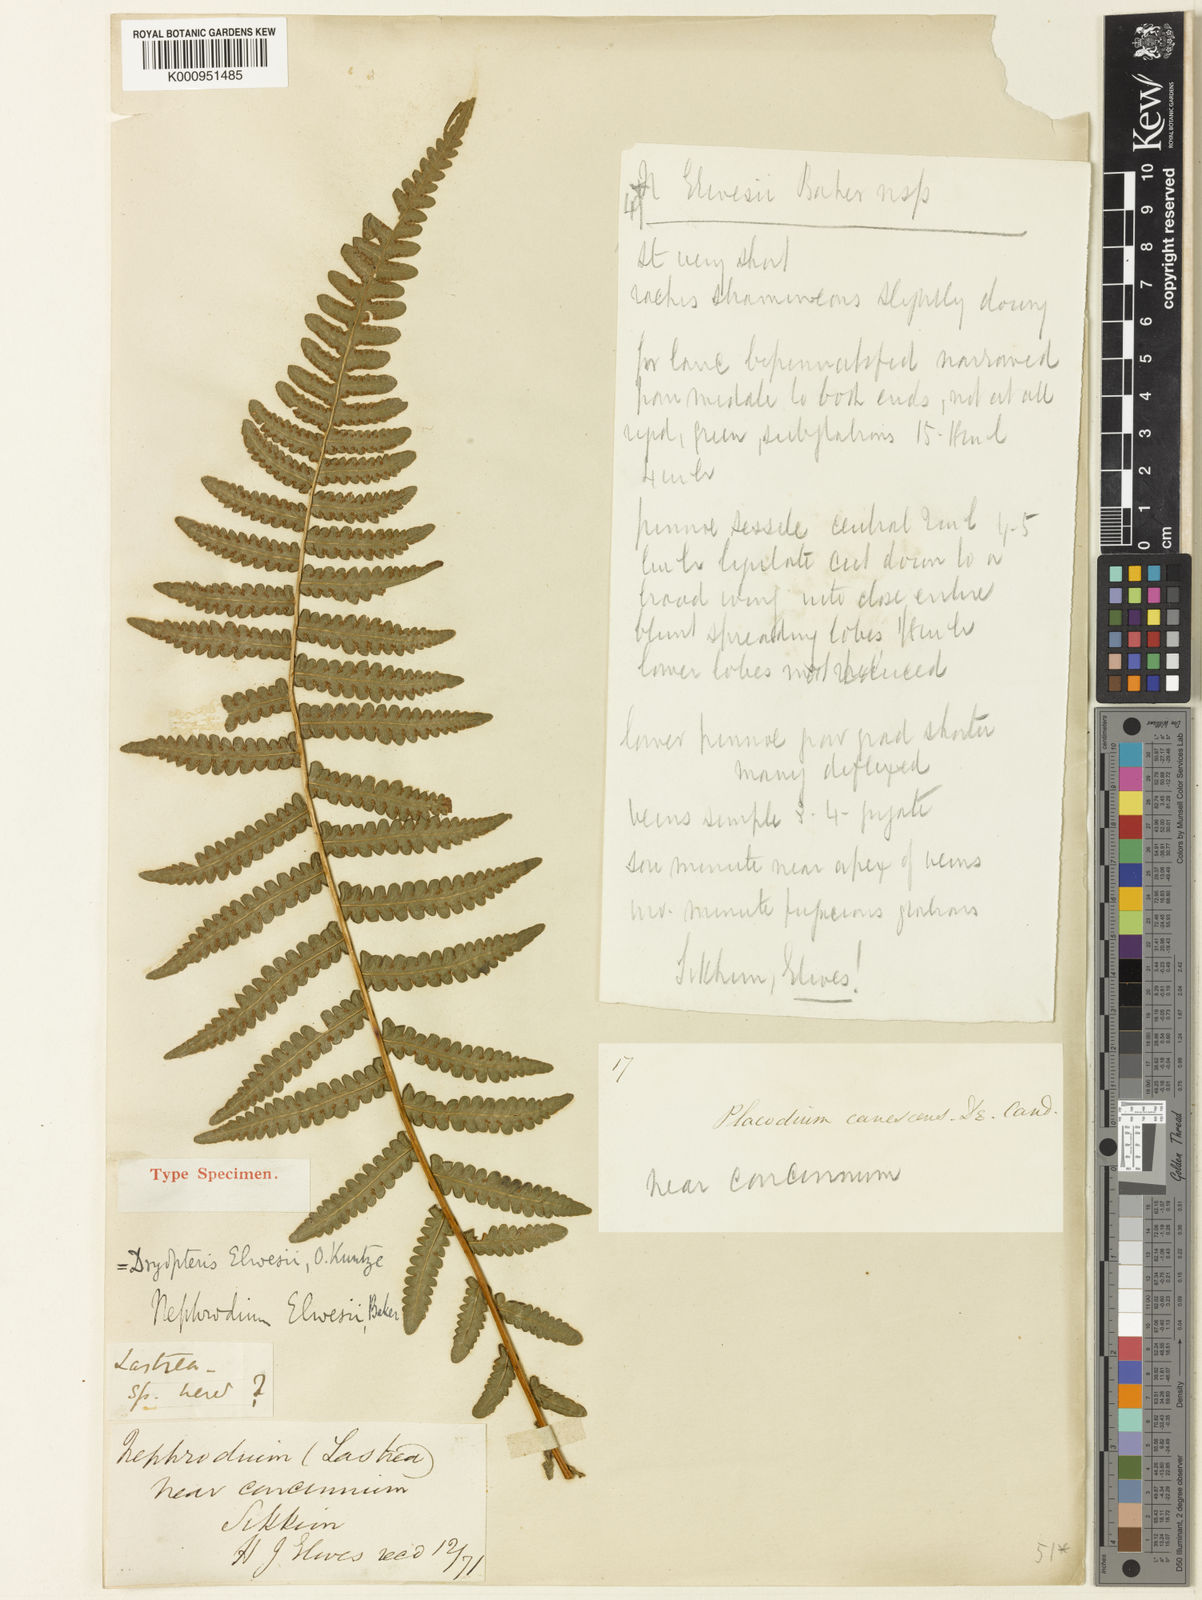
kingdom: Plantae
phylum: Tracheophyta
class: Polypodiopsida
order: Polypodiales
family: Thelypteridaceae
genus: Oreopteris
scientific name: Oreopteris elwesii
